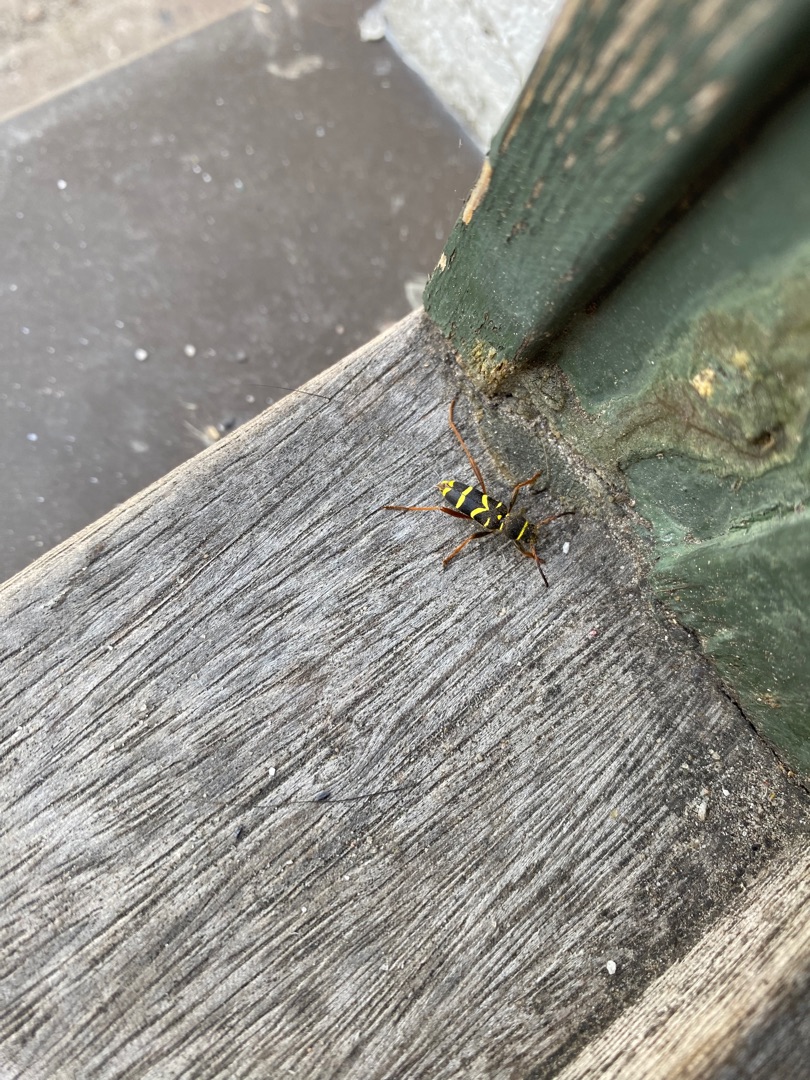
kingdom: Animalia
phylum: Arthropoda
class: Insecta
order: Coleoptera
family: Cerambycidae
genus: Clytus
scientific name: Clytus arietis
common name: Lille hvepsebuk
